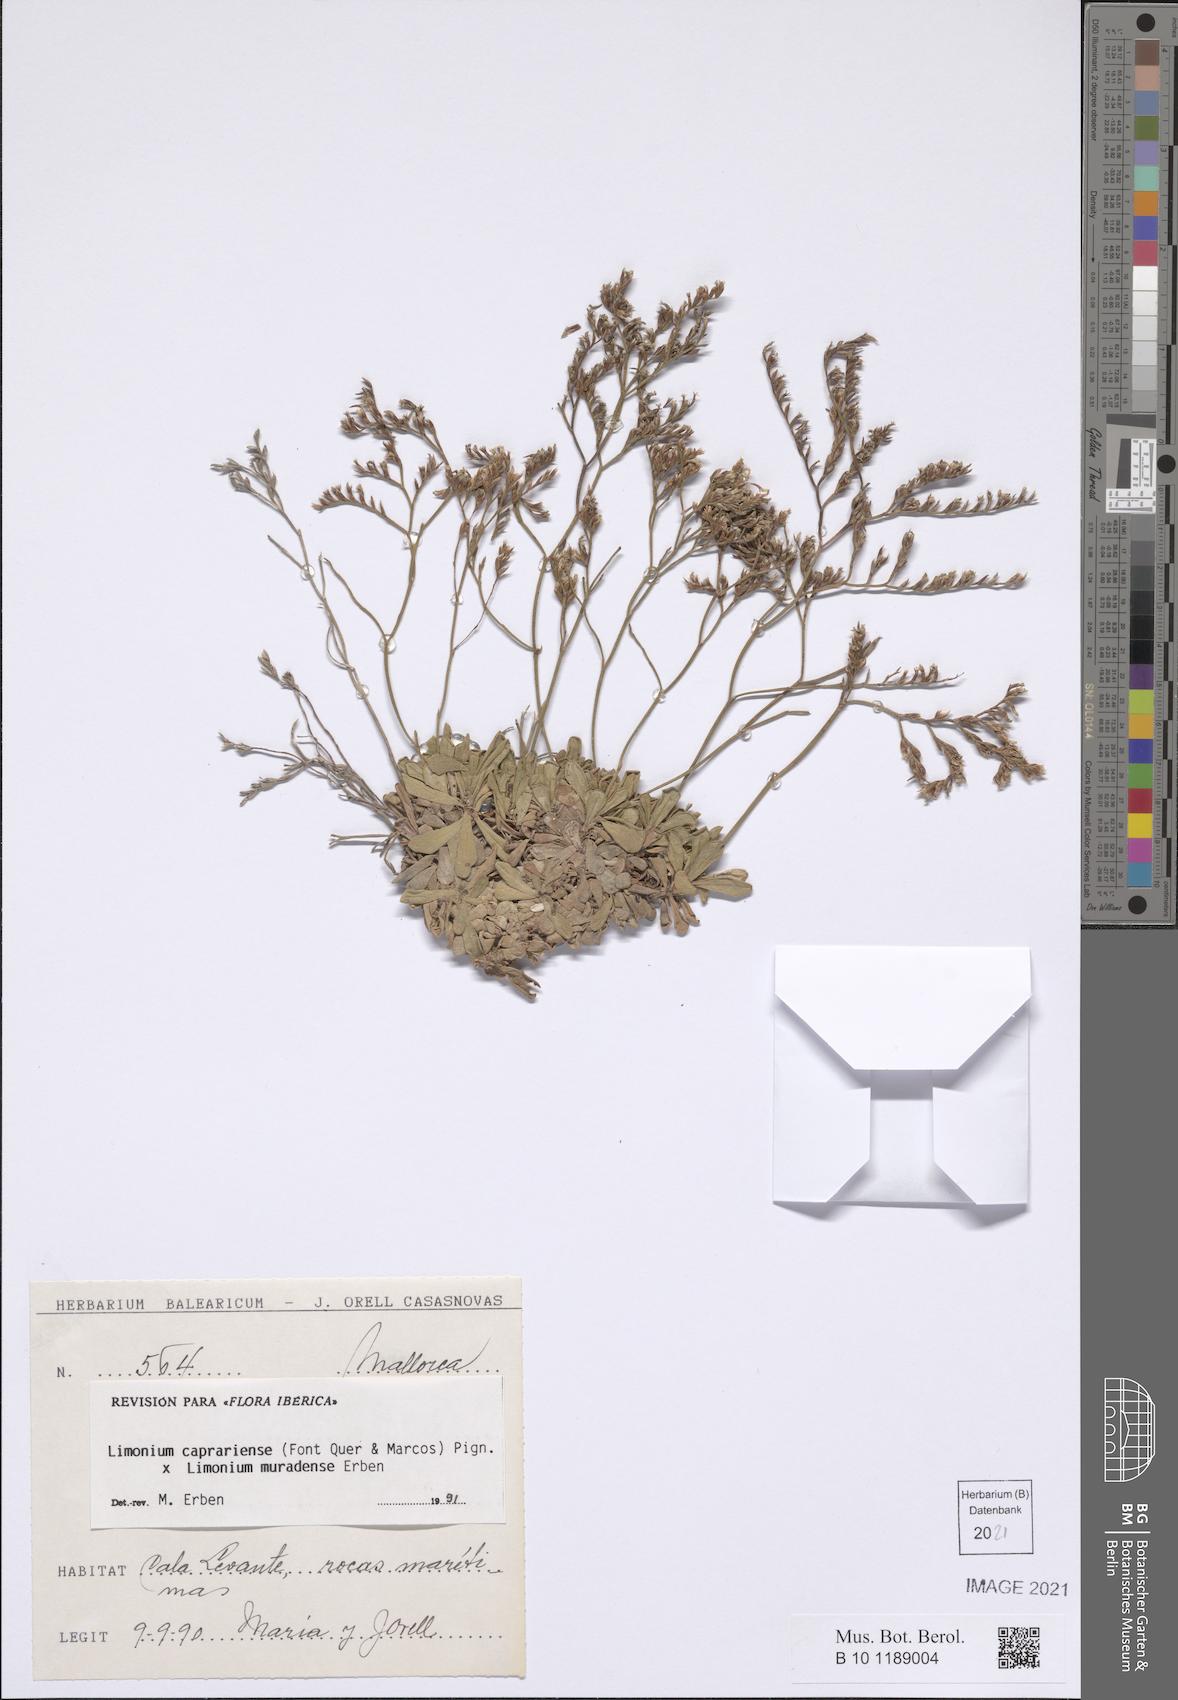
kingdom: Plantae
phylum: Tracheophyta
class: Magnoliopsida
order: Caryophyllales
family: Plumbaginaceae
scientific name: Plumbaginaceae
